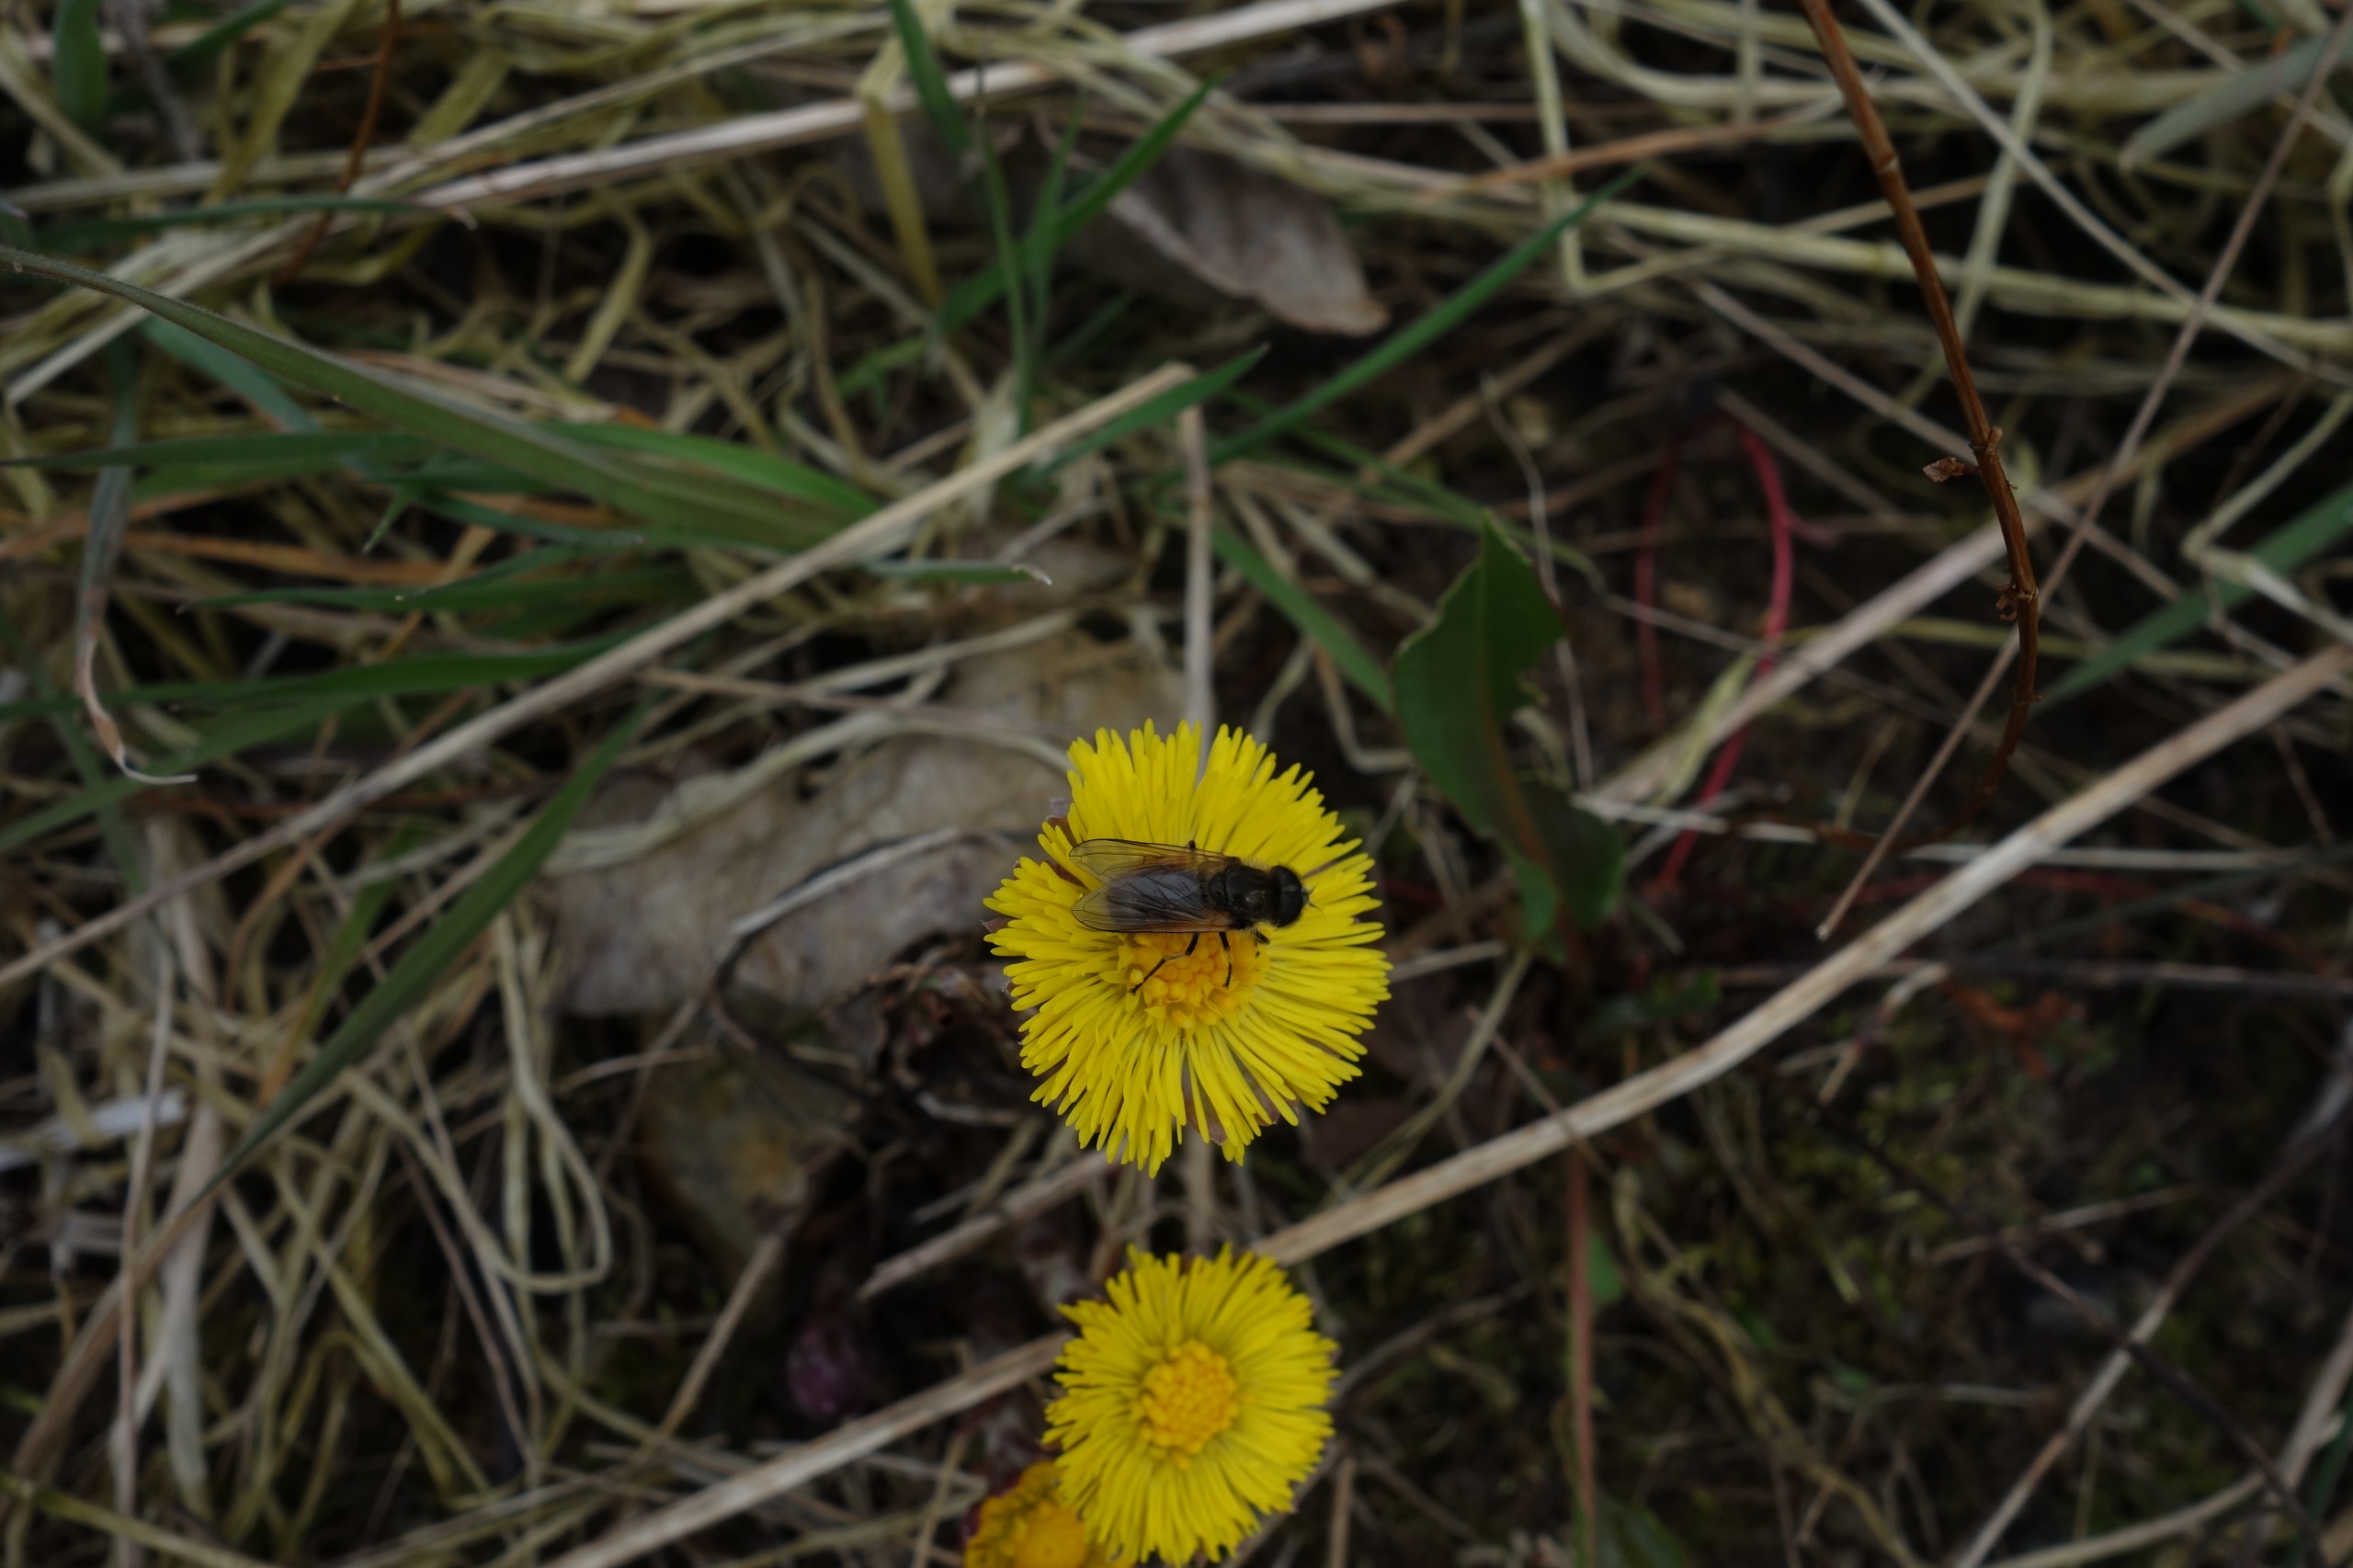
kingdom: Animalia
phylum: Arthropoda
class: Insecta
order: Diptera
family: Syrphidae
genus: Cheilosia
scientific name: Cheilosia corydon
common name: Ræverød urtesvirreflue
